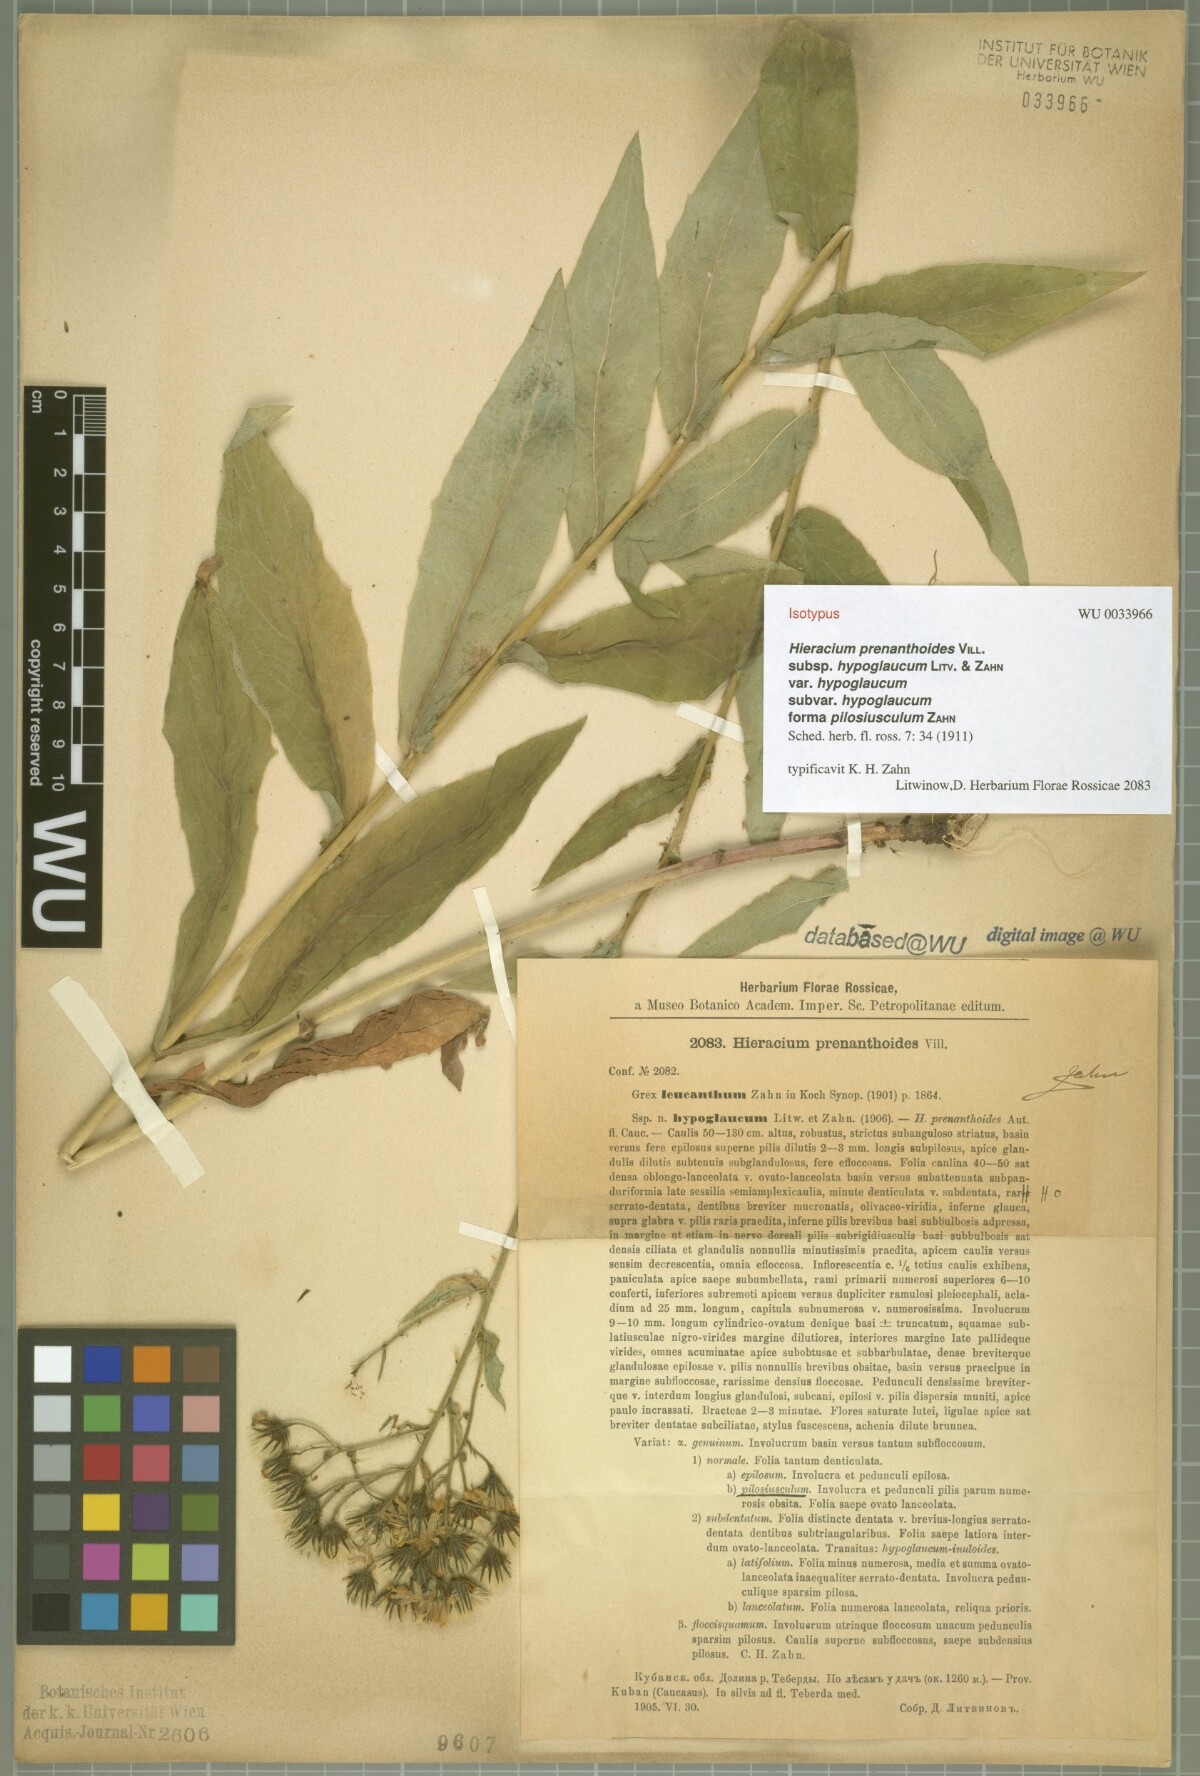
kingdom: Plantae
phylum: Tracheophyta
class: Magnoliopsida
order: Asterales
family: Asteraceae
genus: Hieracium
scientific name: Hieracium prenanthoides
